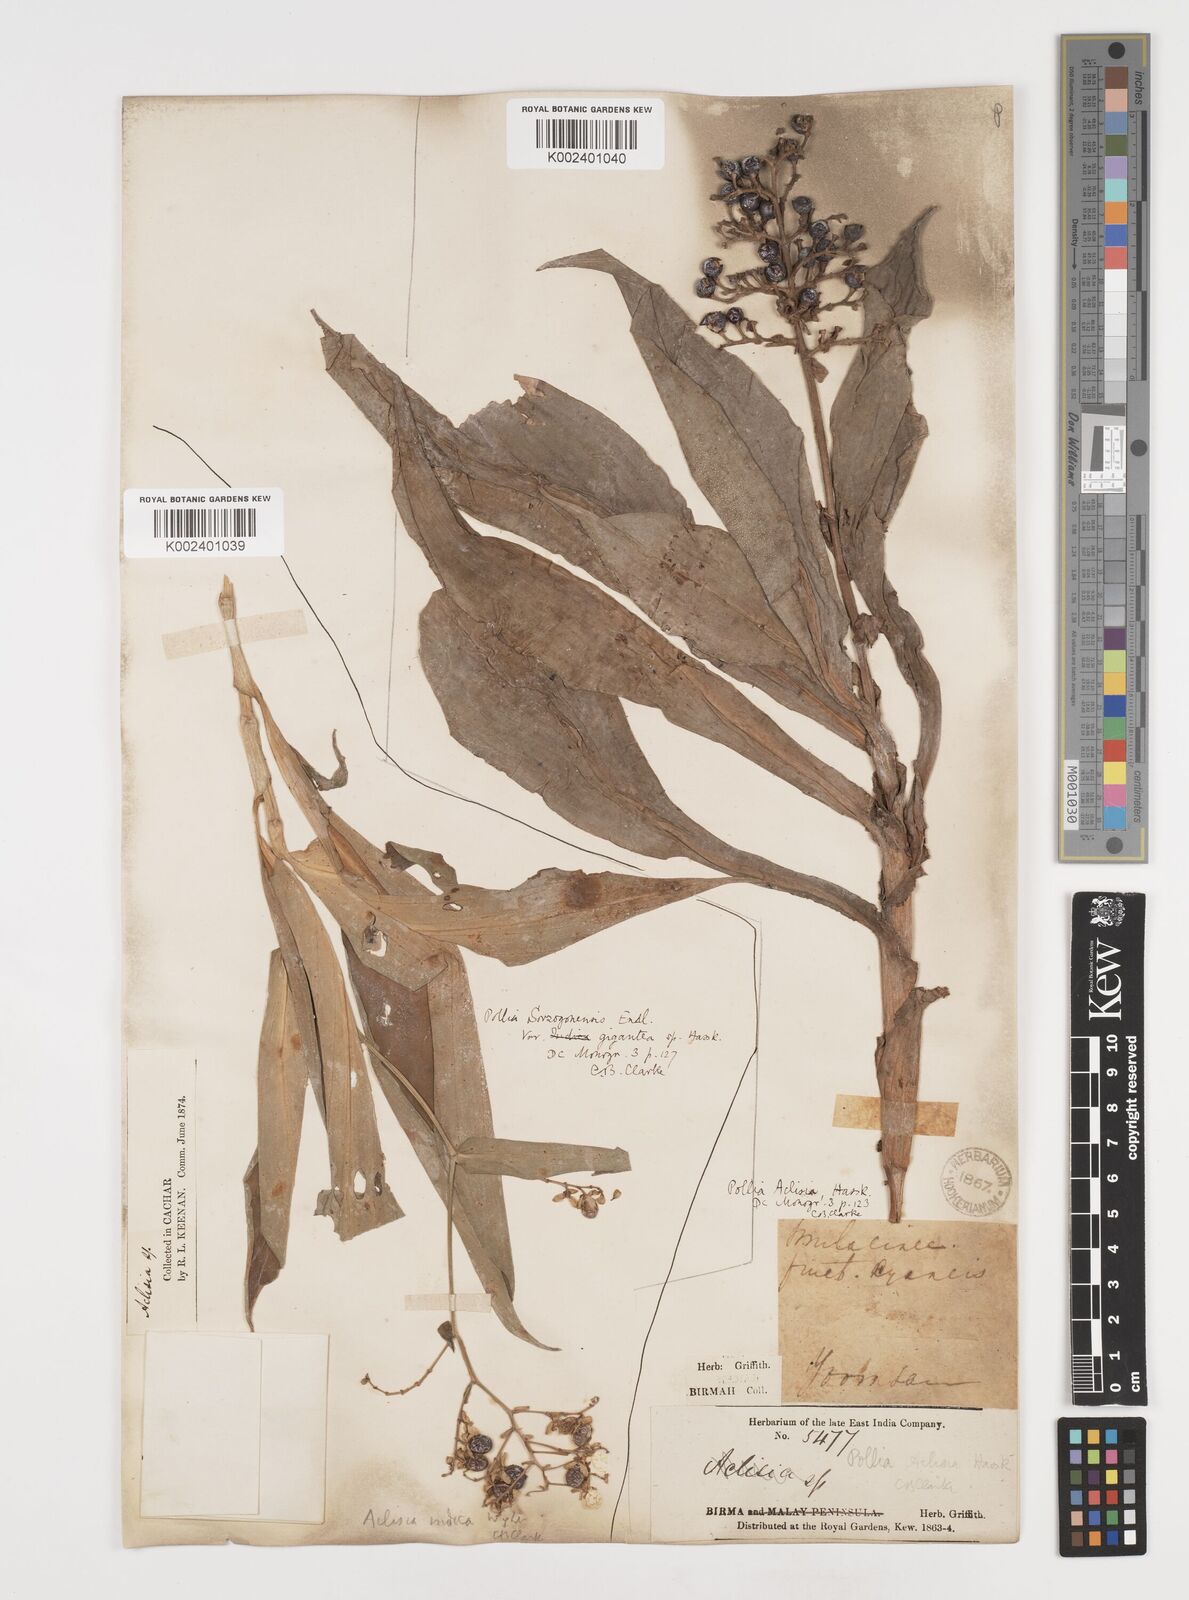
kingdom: Plantae
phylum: Tracheophyta
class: Liliopsida
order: Commelinales
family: Commelinaceae
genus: Pollia
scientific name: Pollia hasskarlii
